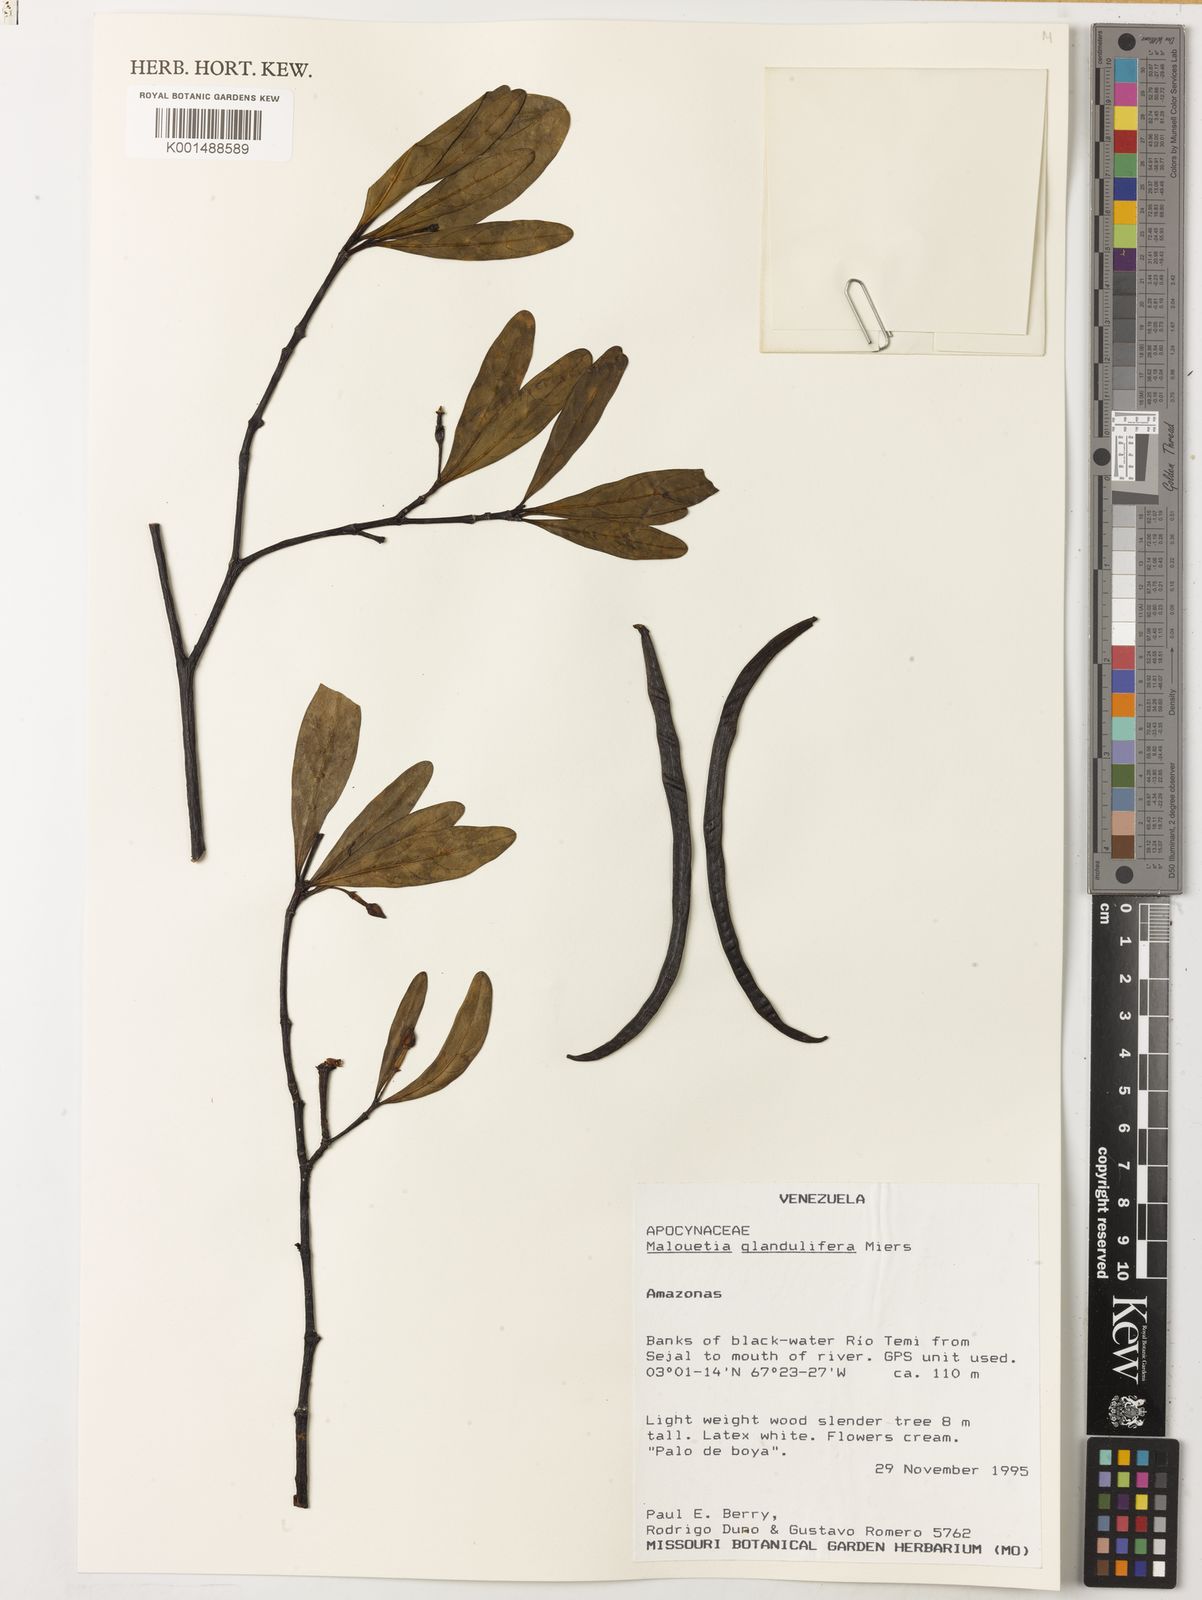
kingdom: Plantae
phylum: Tracheophyta
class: Magnoliopsida
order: Gentianales
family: Apocynaceae
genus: Malouetia
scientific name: Malouetia glandulifera
